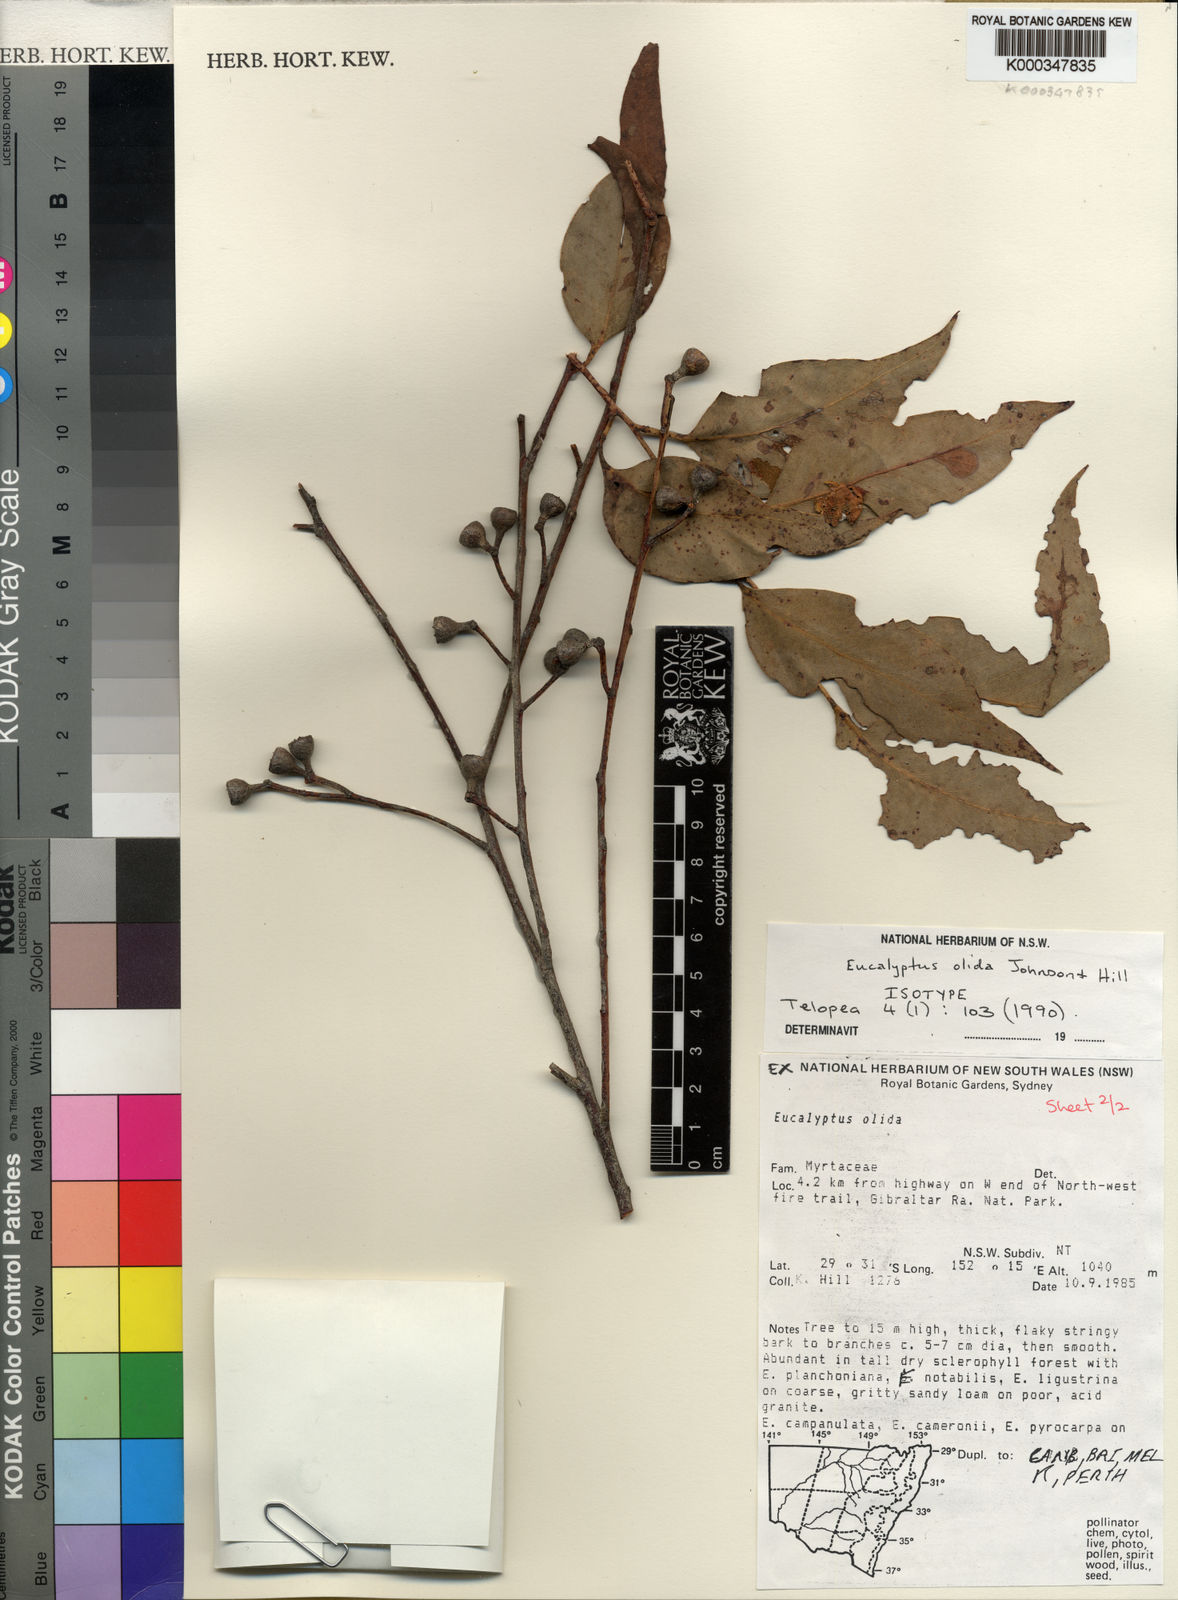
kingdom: Plantae
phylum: Tracheophyta
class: Magnoliopsida
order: Myrtales
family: Myrtaceae
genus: Eucalyptus
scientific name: Eucalyptus olida
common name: Strawberry gum
